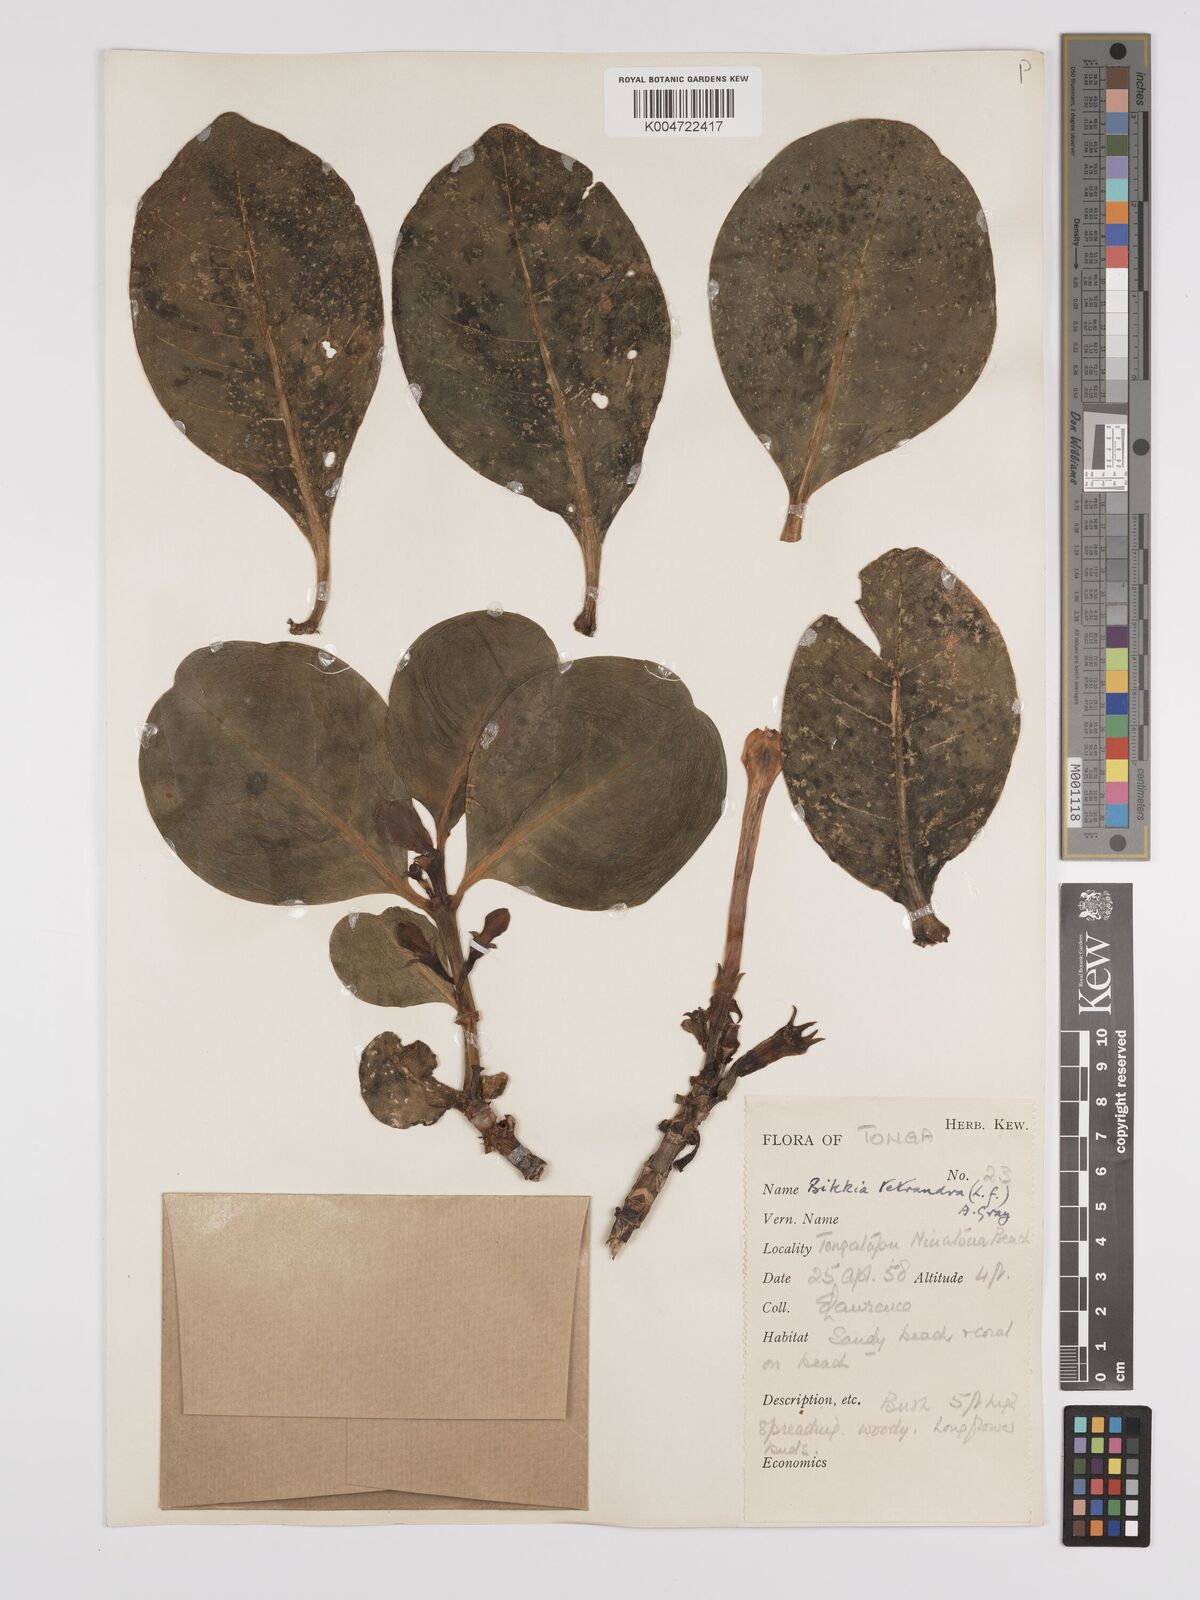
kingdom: Plantae
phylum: Tracheophyta
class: Magnoliopsida
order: Gentianales
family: Rubiaceae
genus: Bikkia
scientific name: Bikkia
